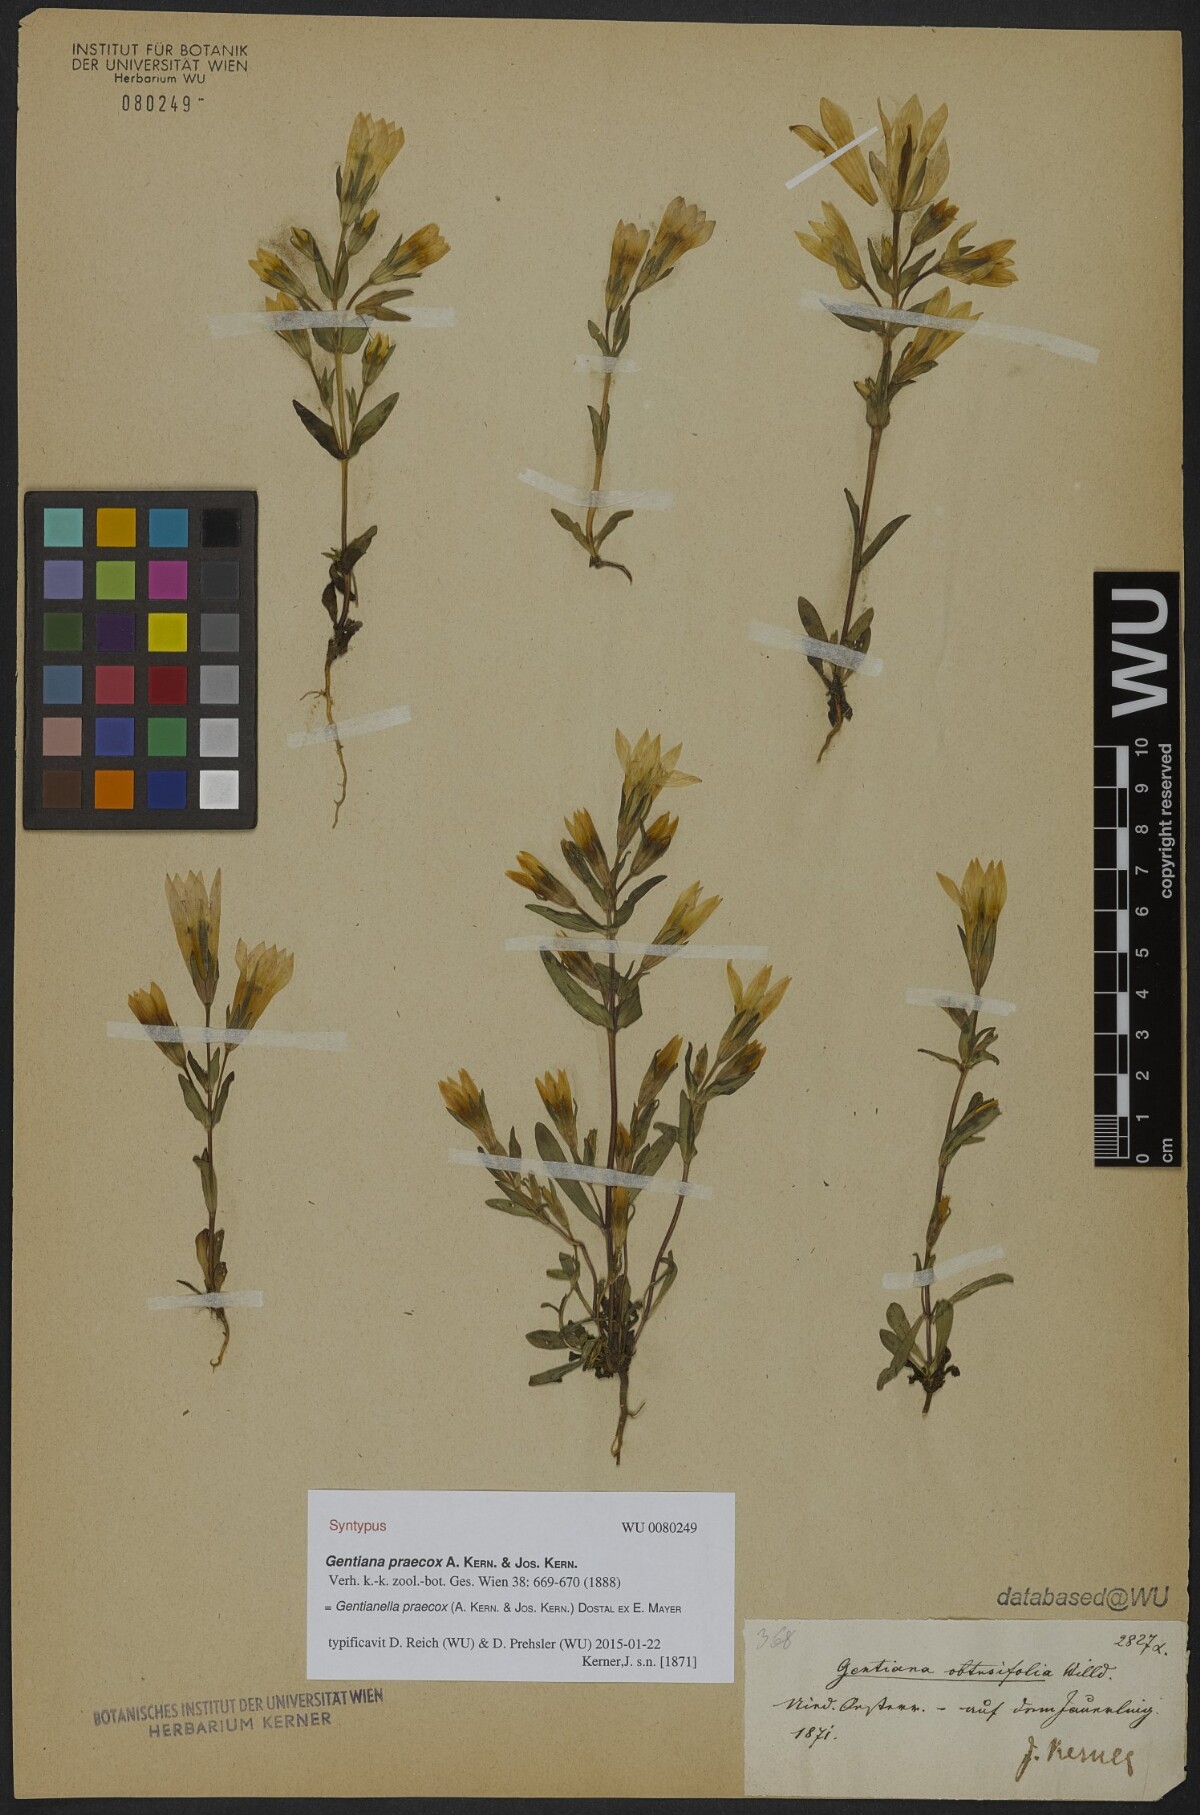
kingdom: Plantae
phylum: Tracheophyta
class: Magnoliopsida
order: Gentianales
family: Gentianaceae
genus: Gentianella
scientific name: Gentianella praecox
